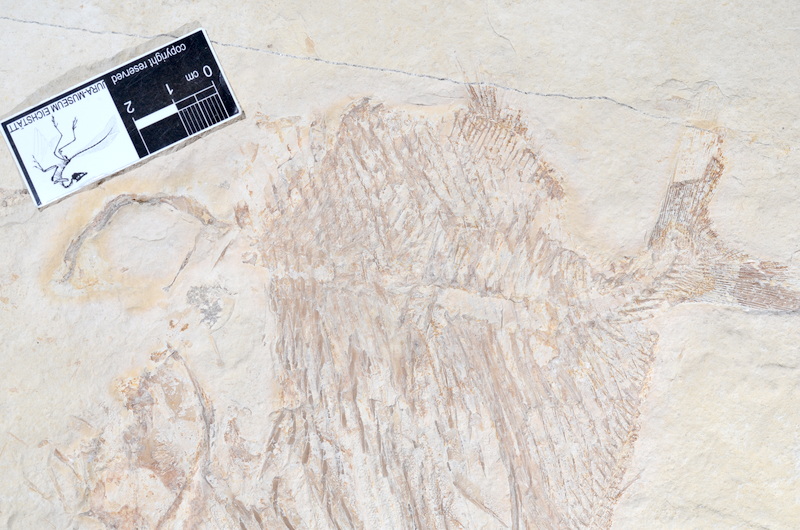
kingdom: Animalia
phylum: Chordata
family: Gyrodontidae
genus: Gyrodus
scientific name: Gyrodus hexagonus
